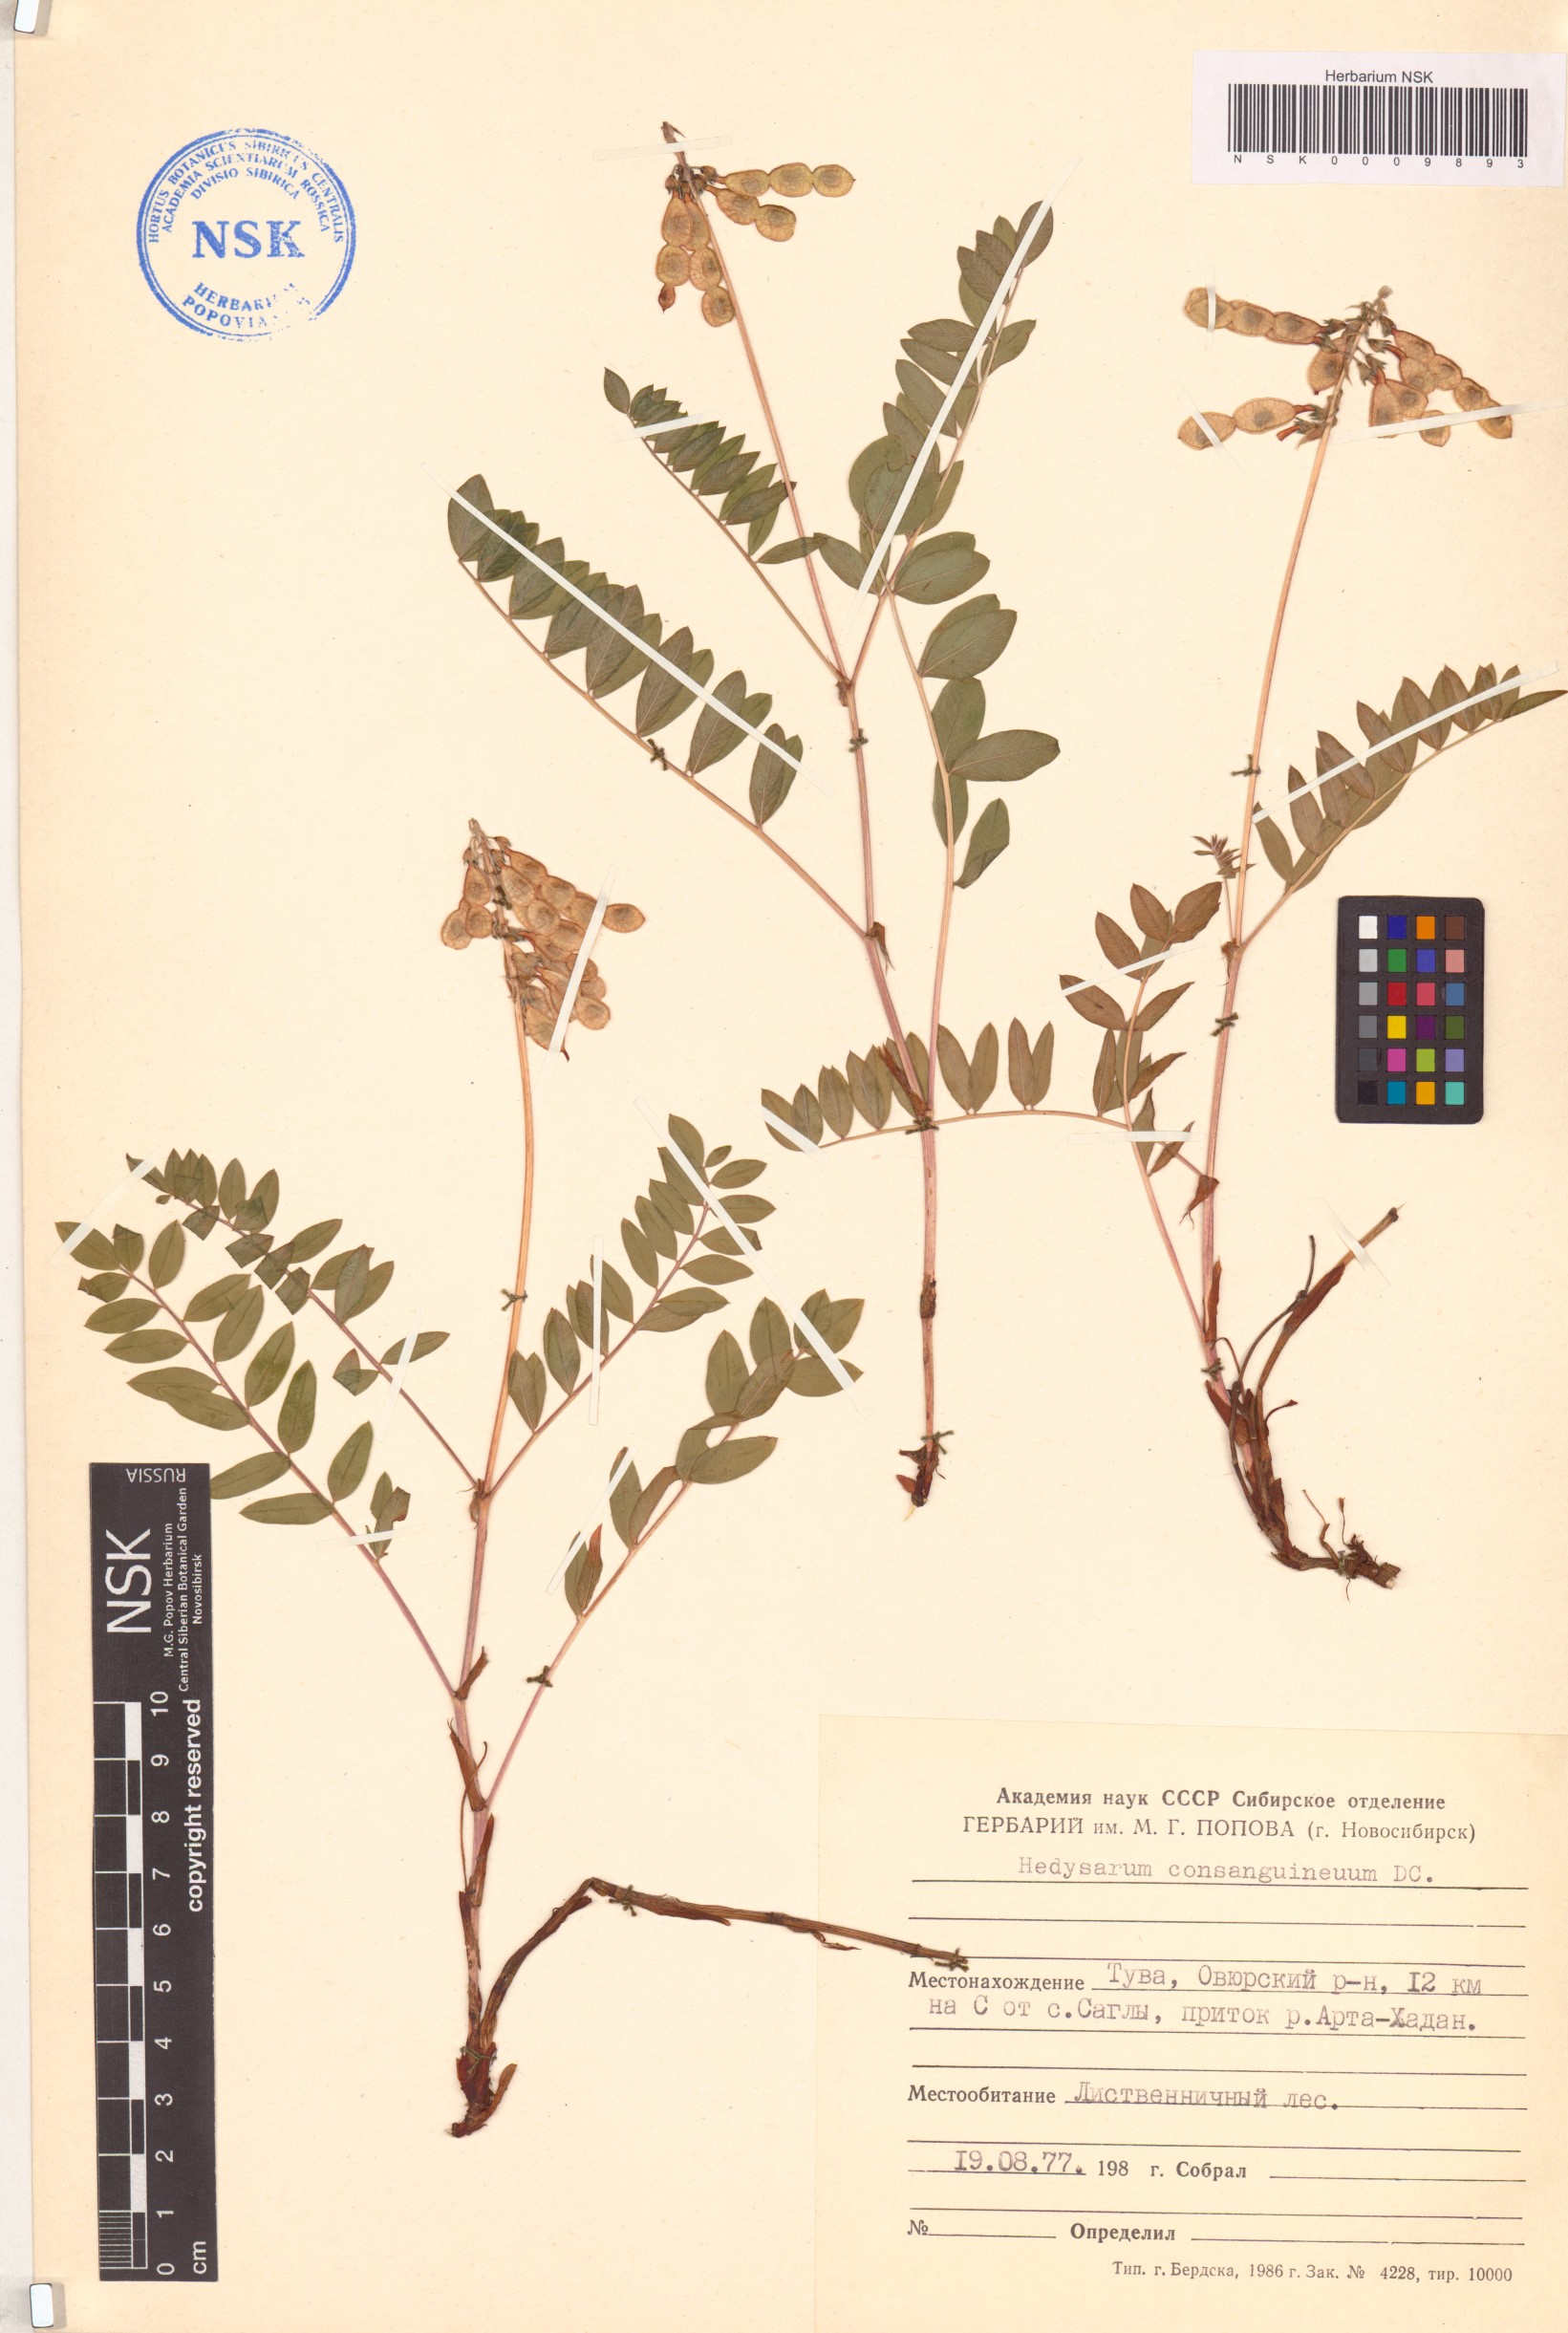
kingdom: Plantae
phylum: Tracheophyta
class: Magnoliopsida
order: Fabales
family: Fabaceae
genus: Hedysarum
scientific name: Hedysarum consanguineum
